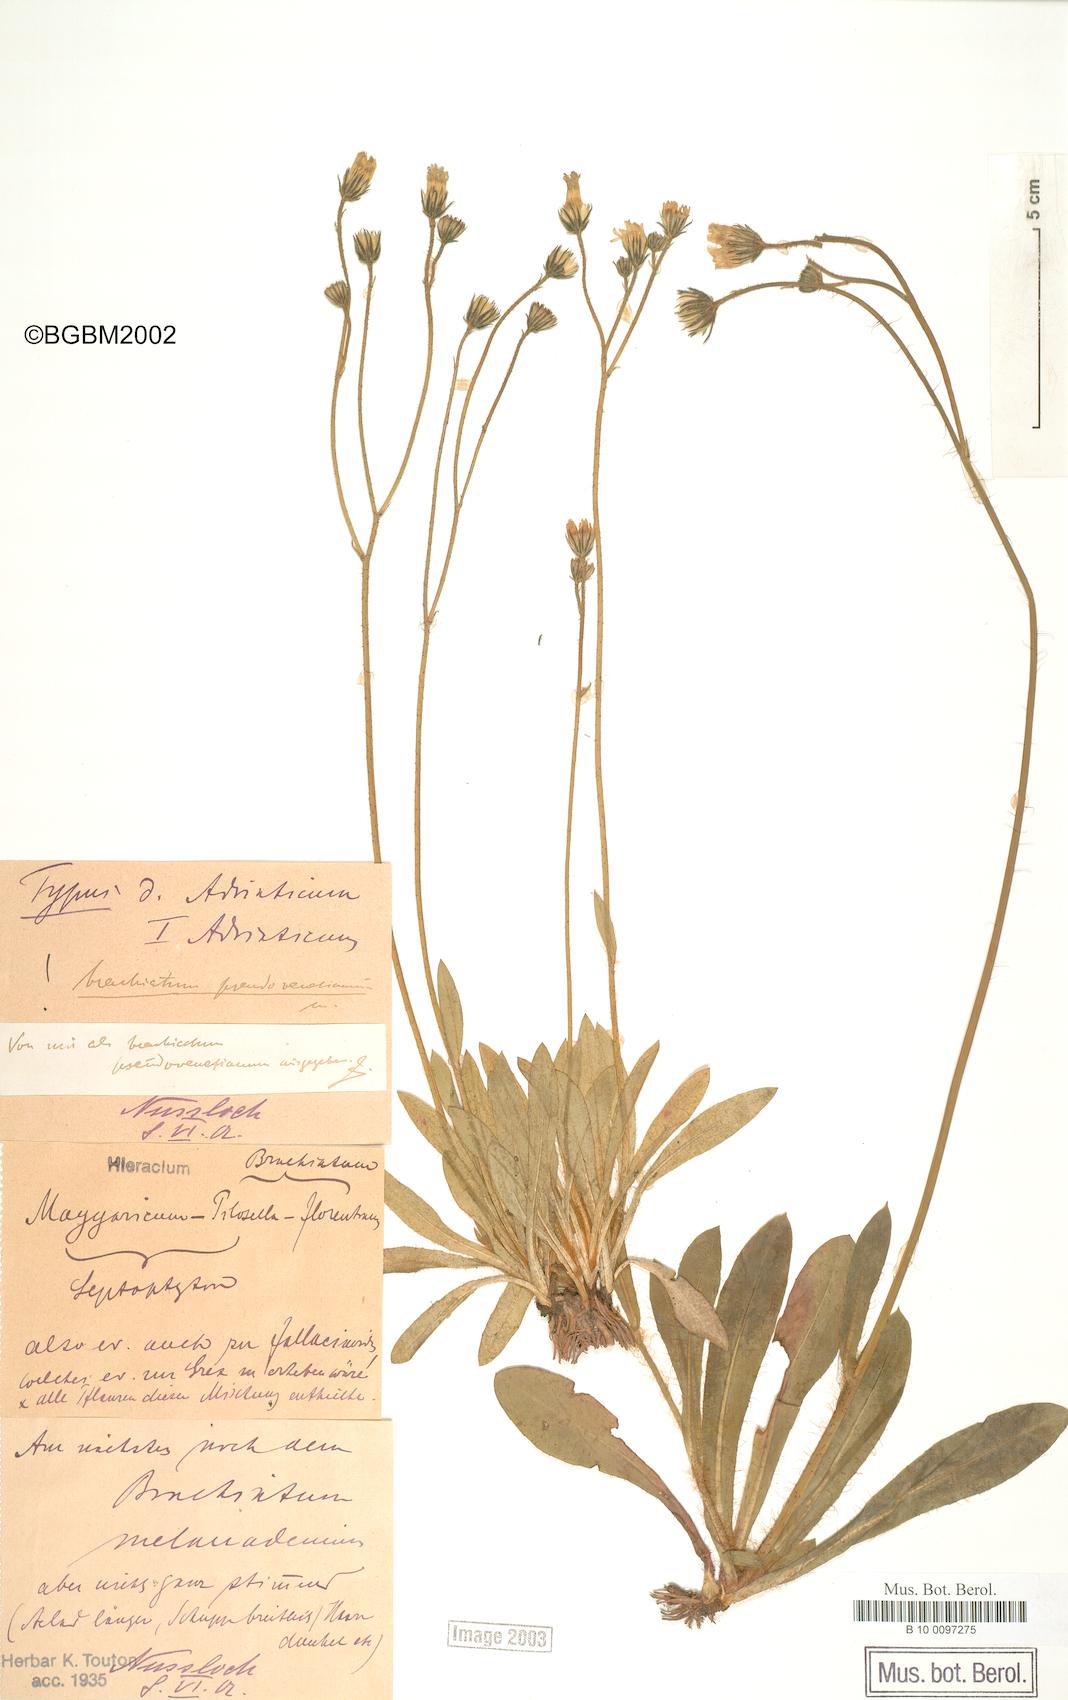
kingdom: Plantae
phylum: Tracheophyta
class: Magnoliopsida
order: Asterales
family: Asteraceae
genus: Pilosella
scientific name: Pilosella acutifolia
